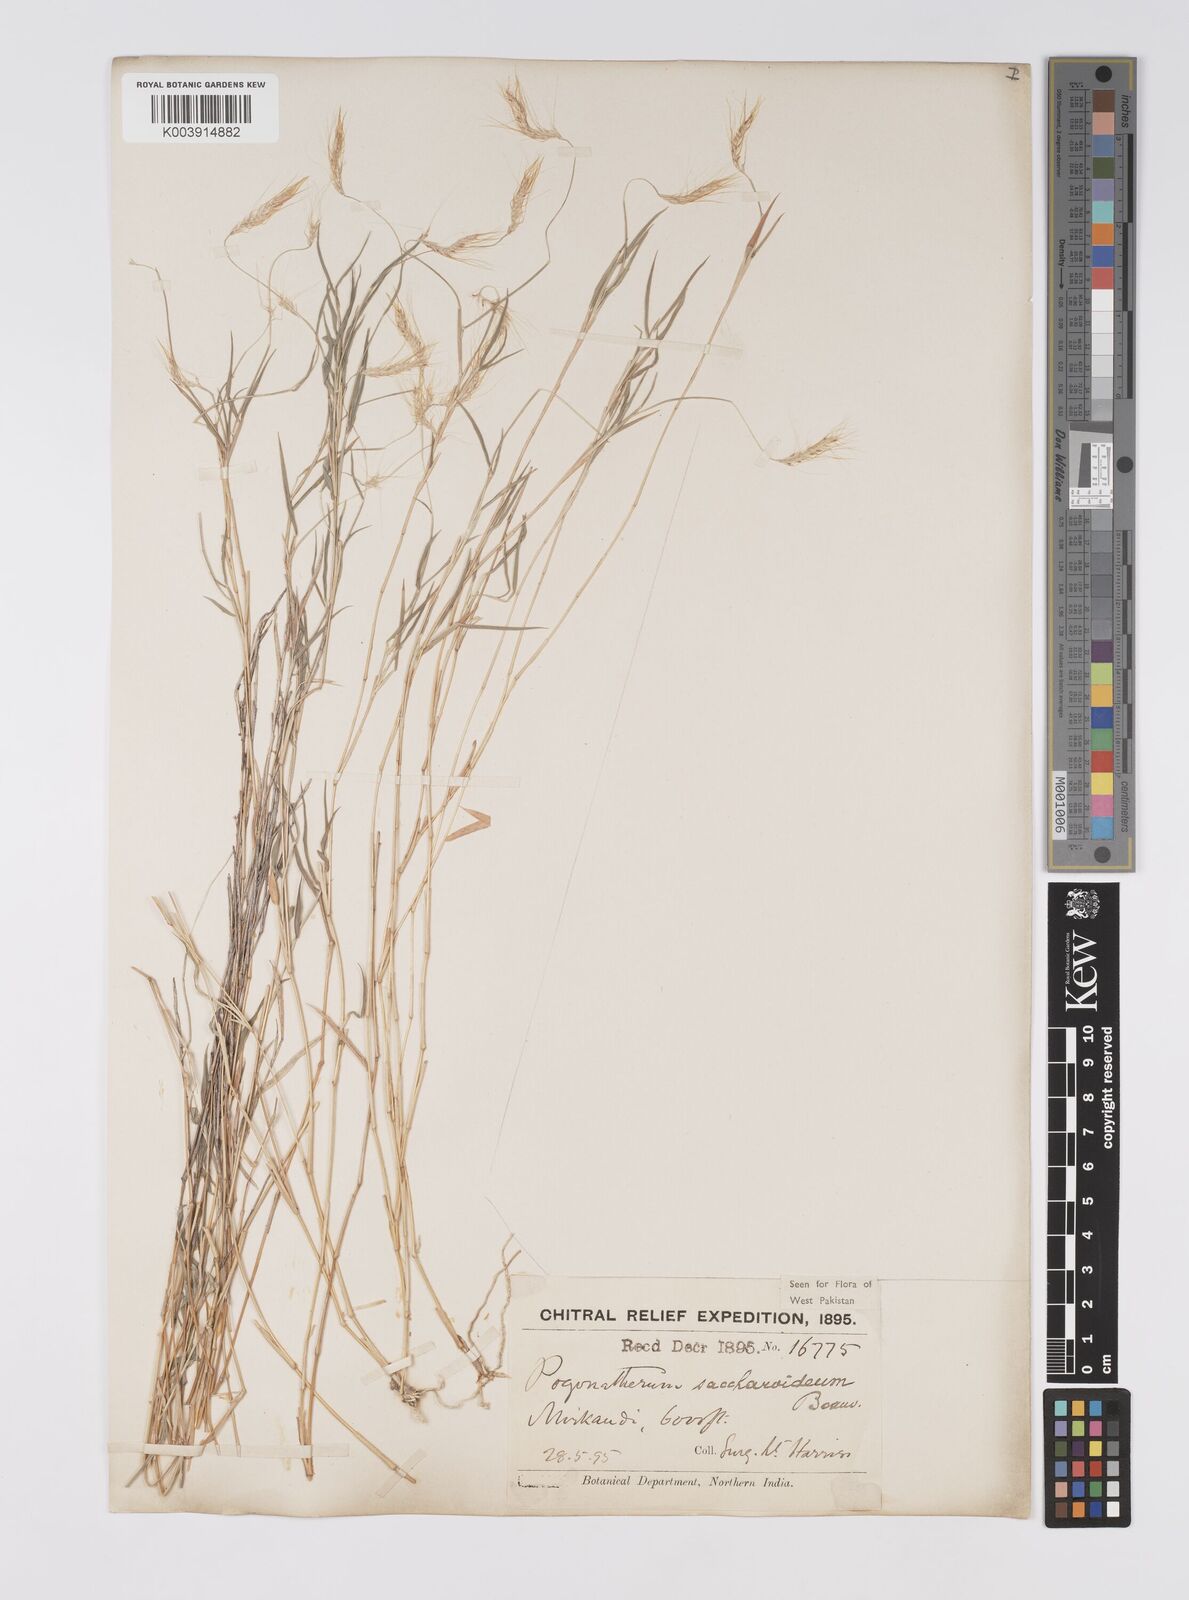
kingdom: Plantae
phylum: Tracheophyta
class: Liliopsida
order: Poales
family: Poaceae
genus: Pogonatherum
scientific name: Pogonatherum paniceum
